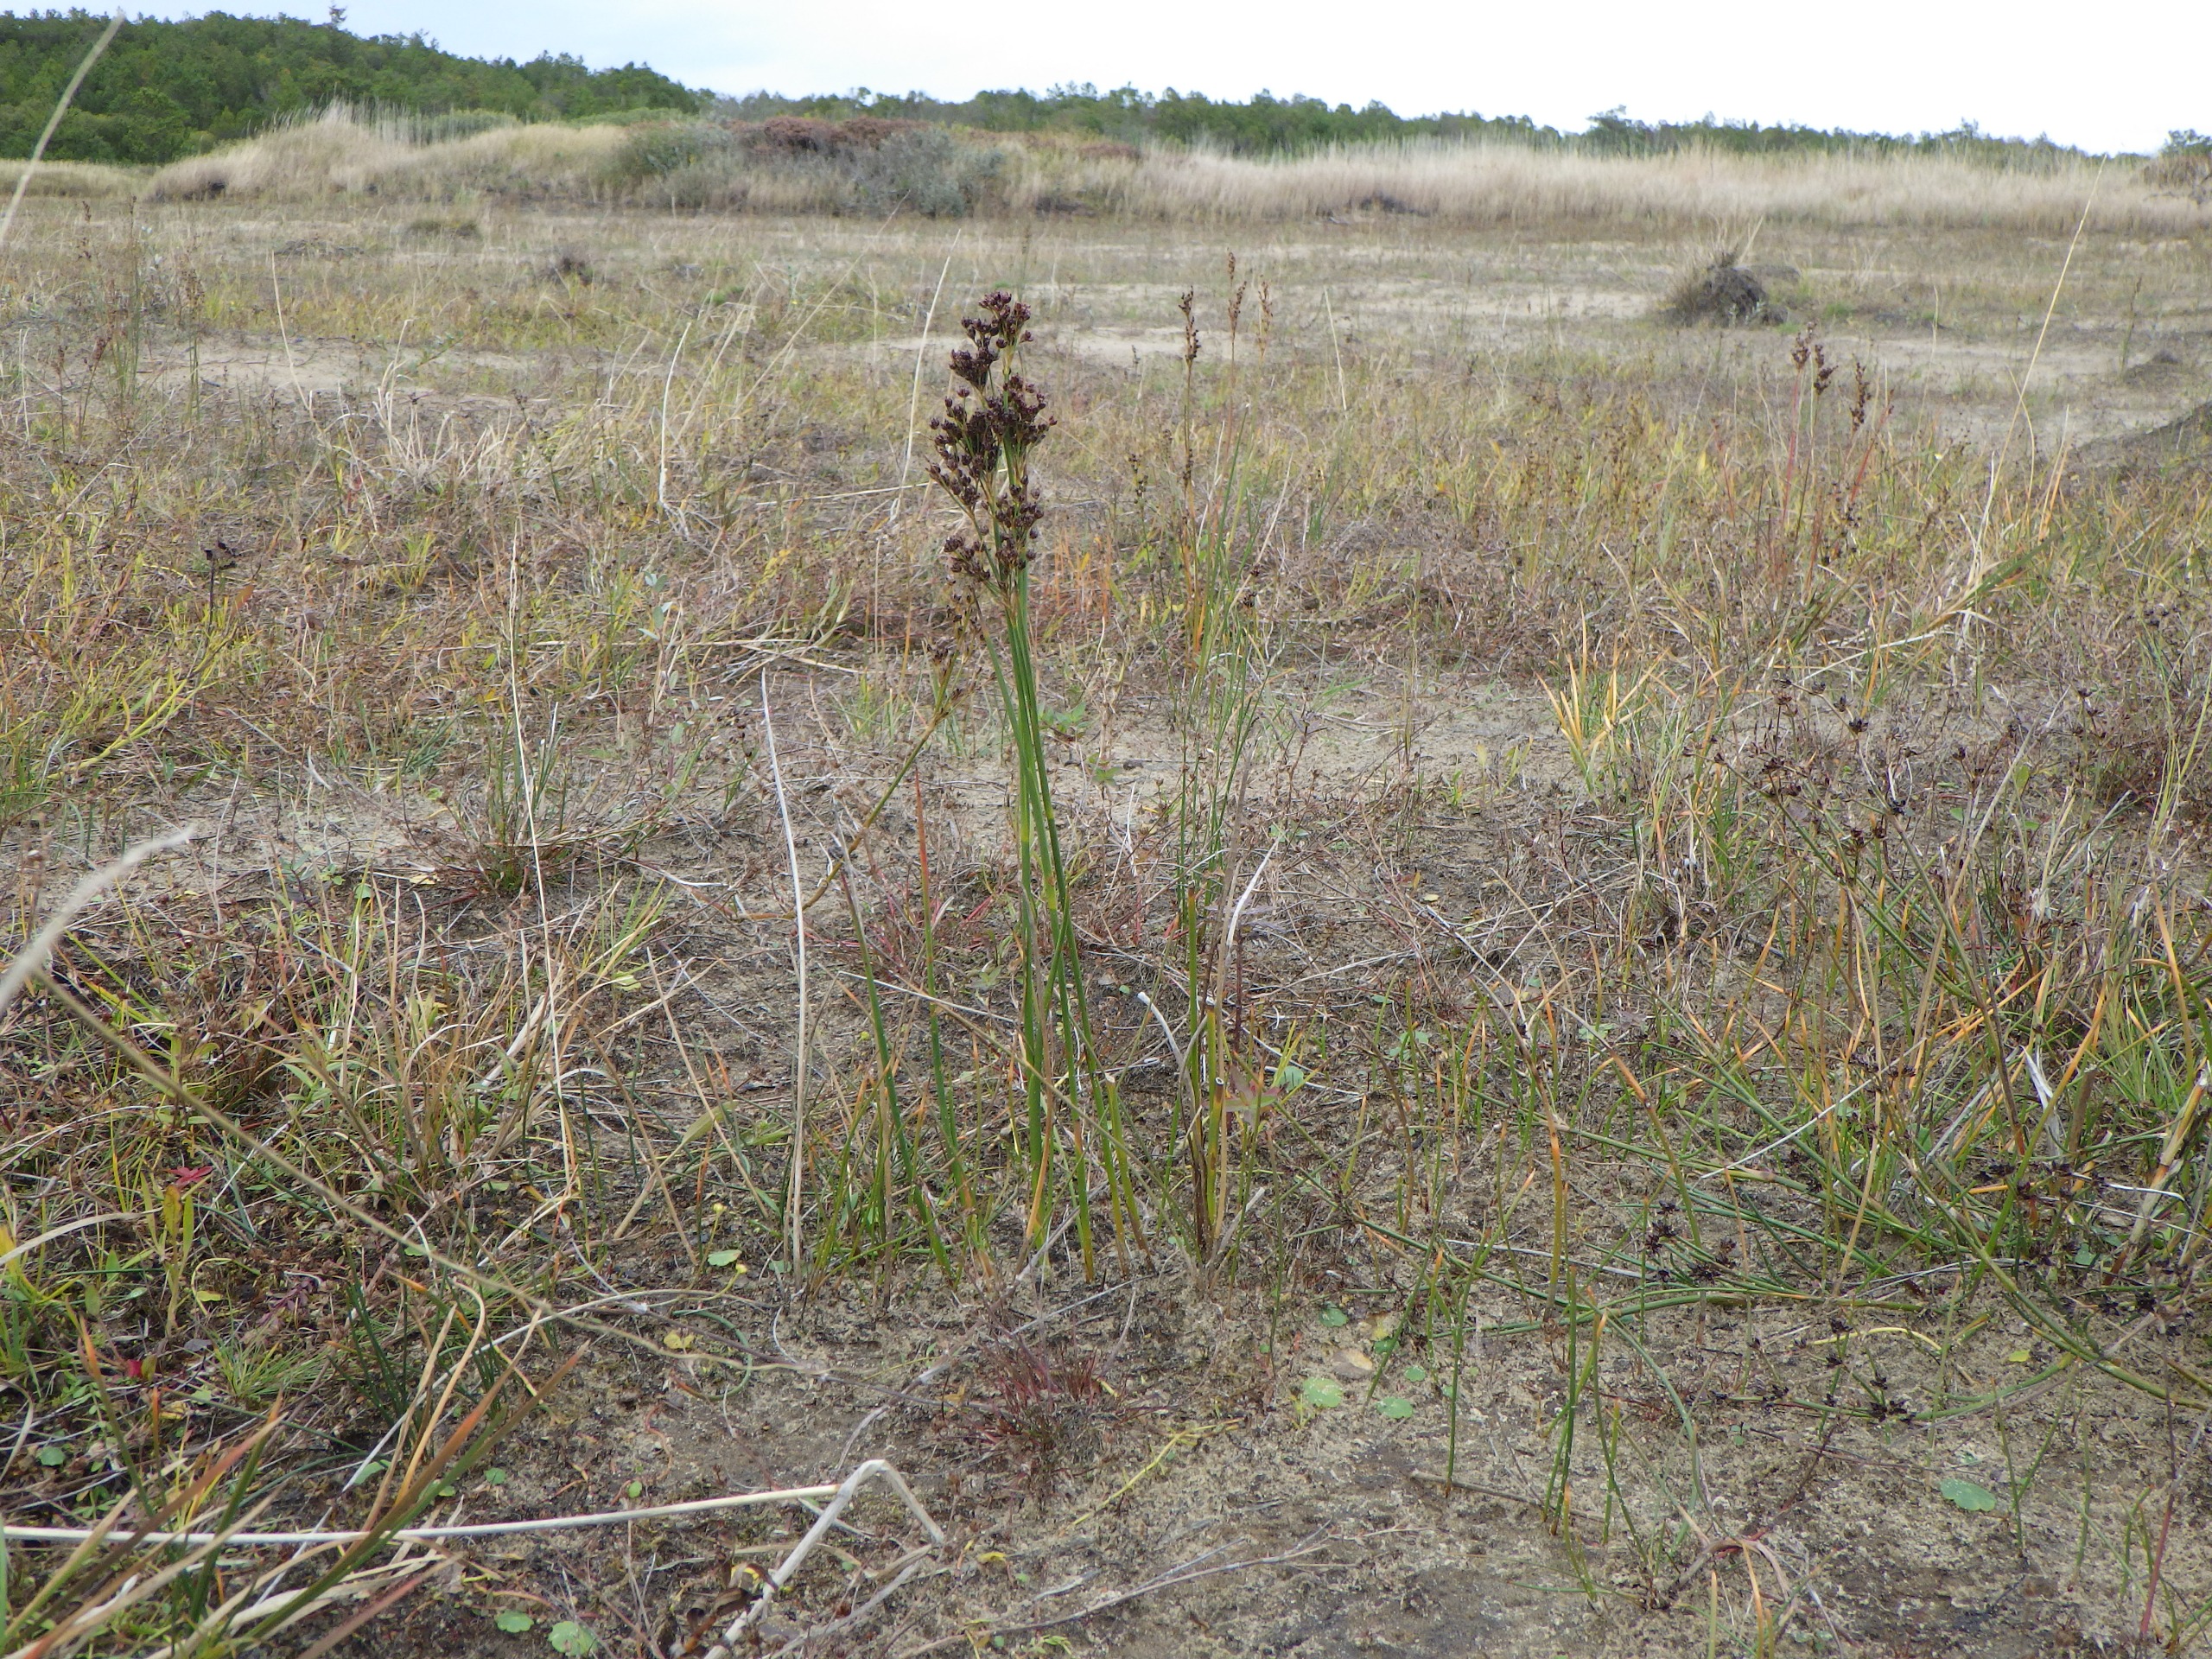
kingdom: Plantae
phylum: Tracheophyta
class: Liliopsida
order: Poales
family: Juncaceae
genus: Juncus
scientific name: Juncus anceps
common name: Sand-siv
